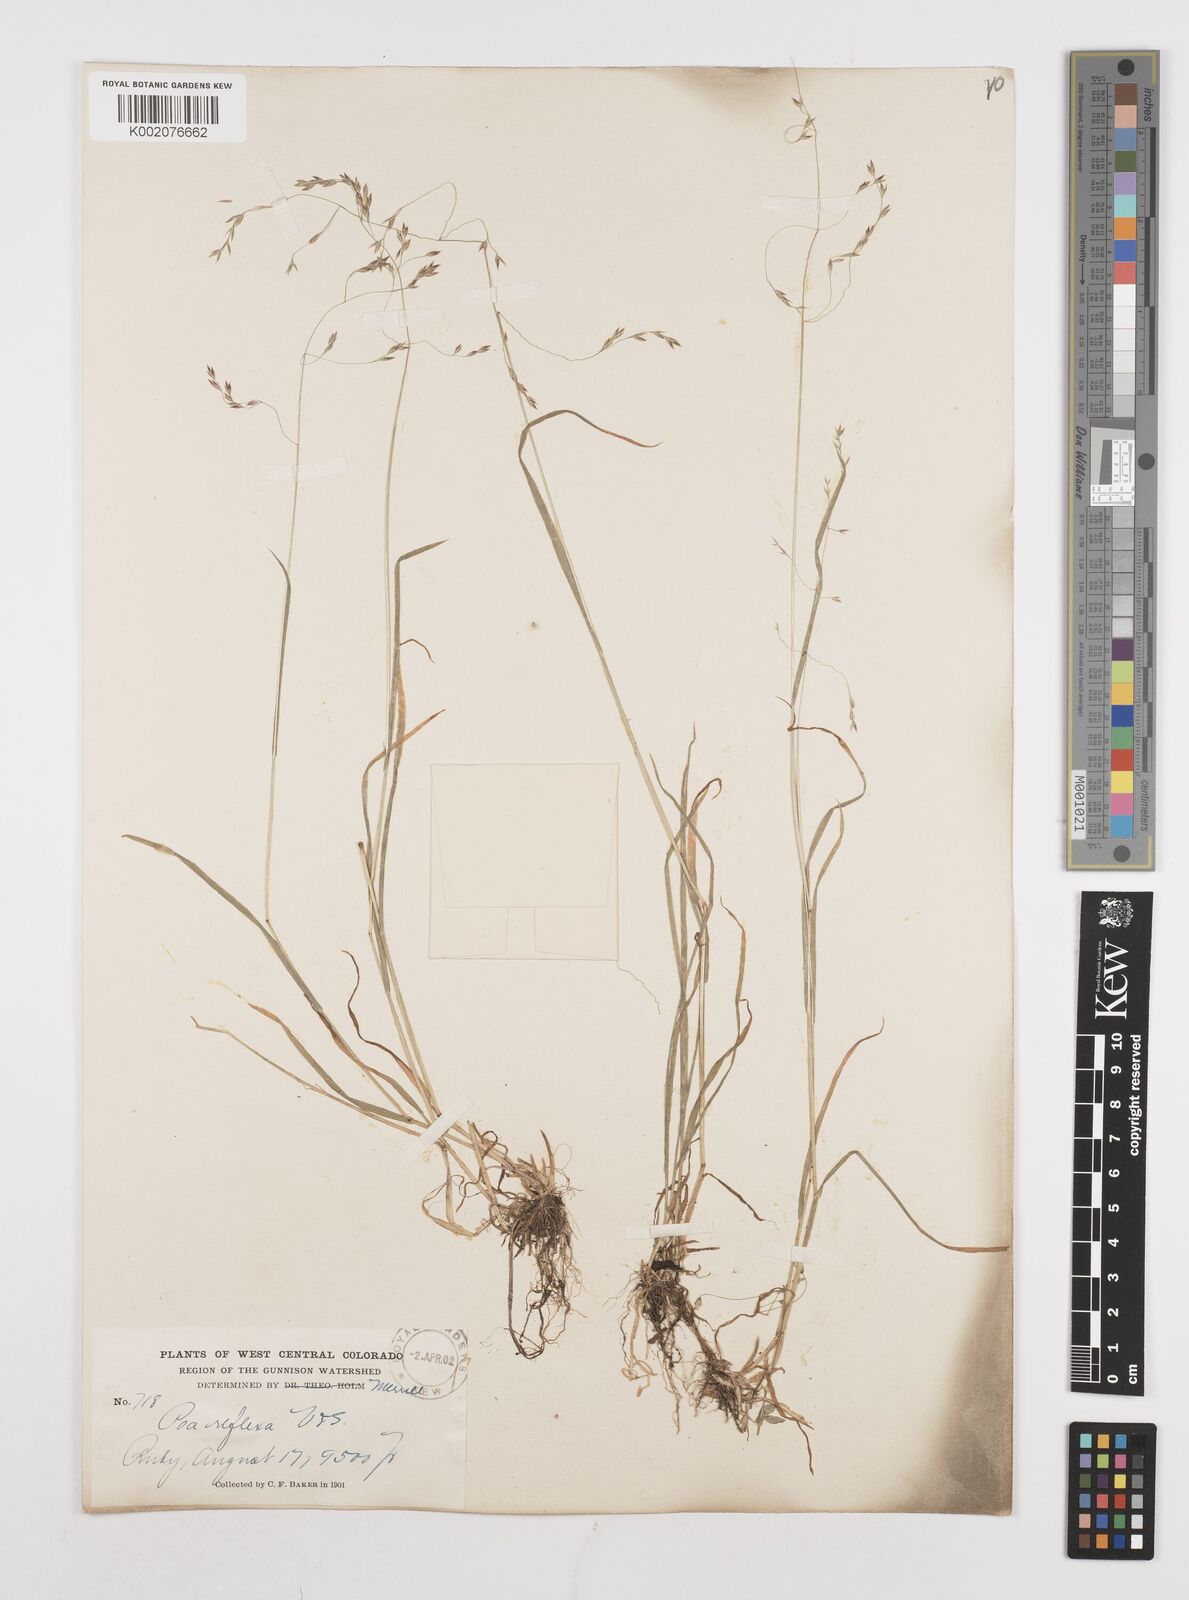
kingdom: Plantae
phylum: Tracheophyta
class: Liliopsida
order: Poales
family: Poaceae
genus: Poa
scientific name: Poa reflexa
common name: Nodding bluegrass
